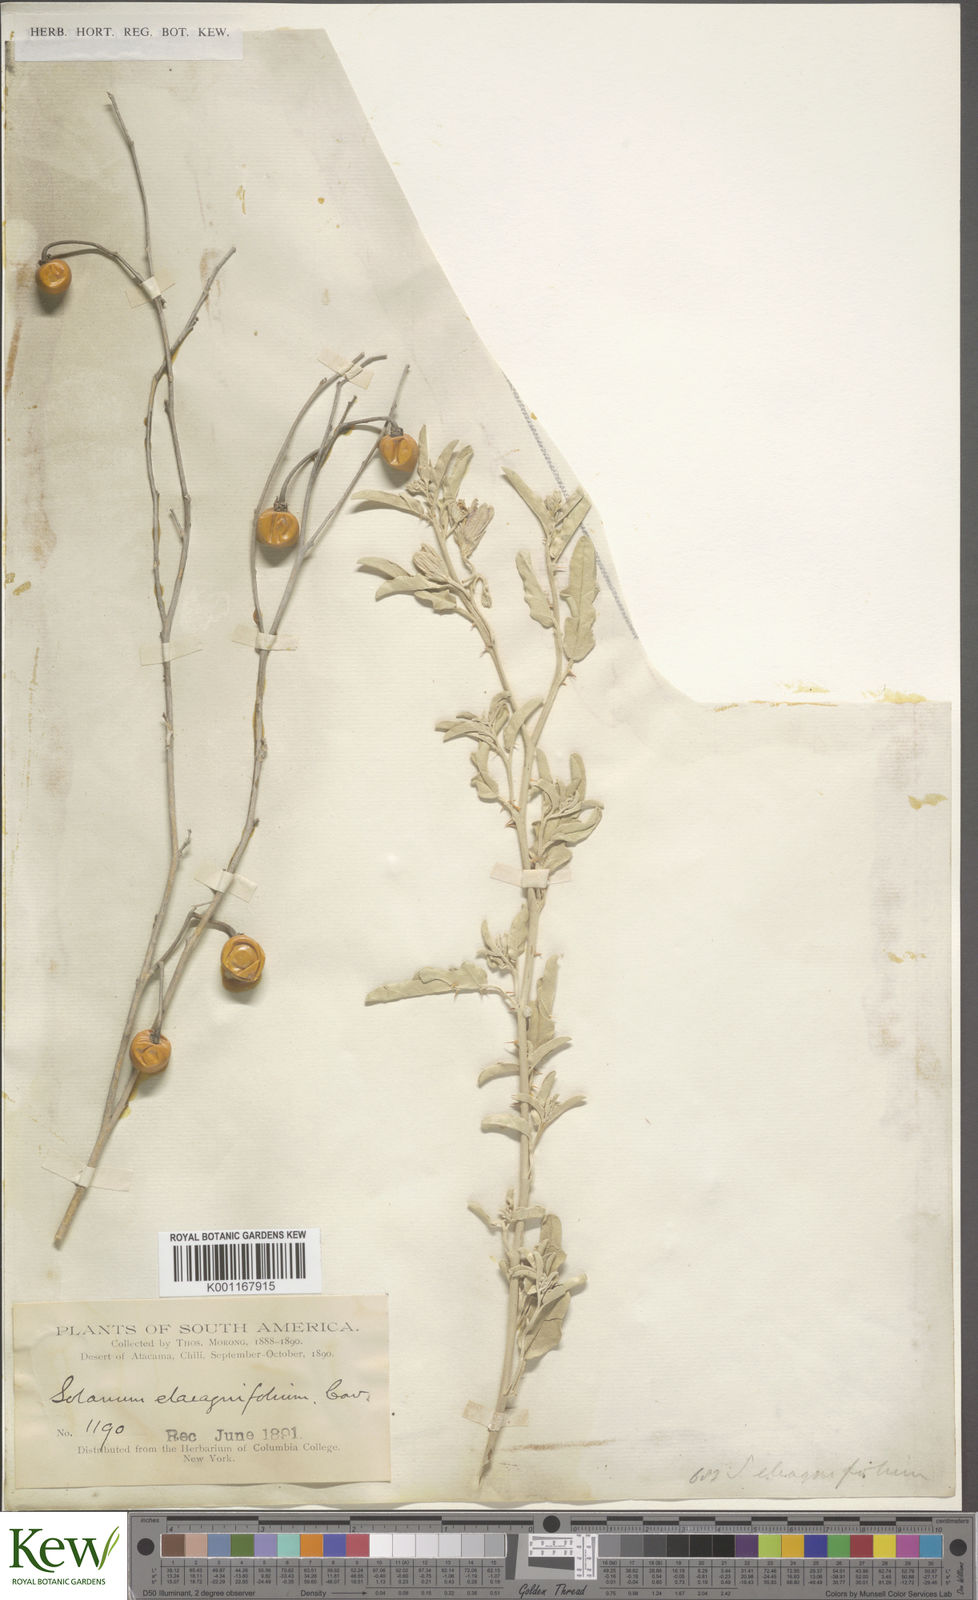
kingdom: Plantae
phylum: Tracheophyta
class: Magnoliopsida
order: Solanales
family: Solanaceae
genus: Solanum
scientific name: Solanum elaeagnifolium
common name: Silverleaf nightshade
